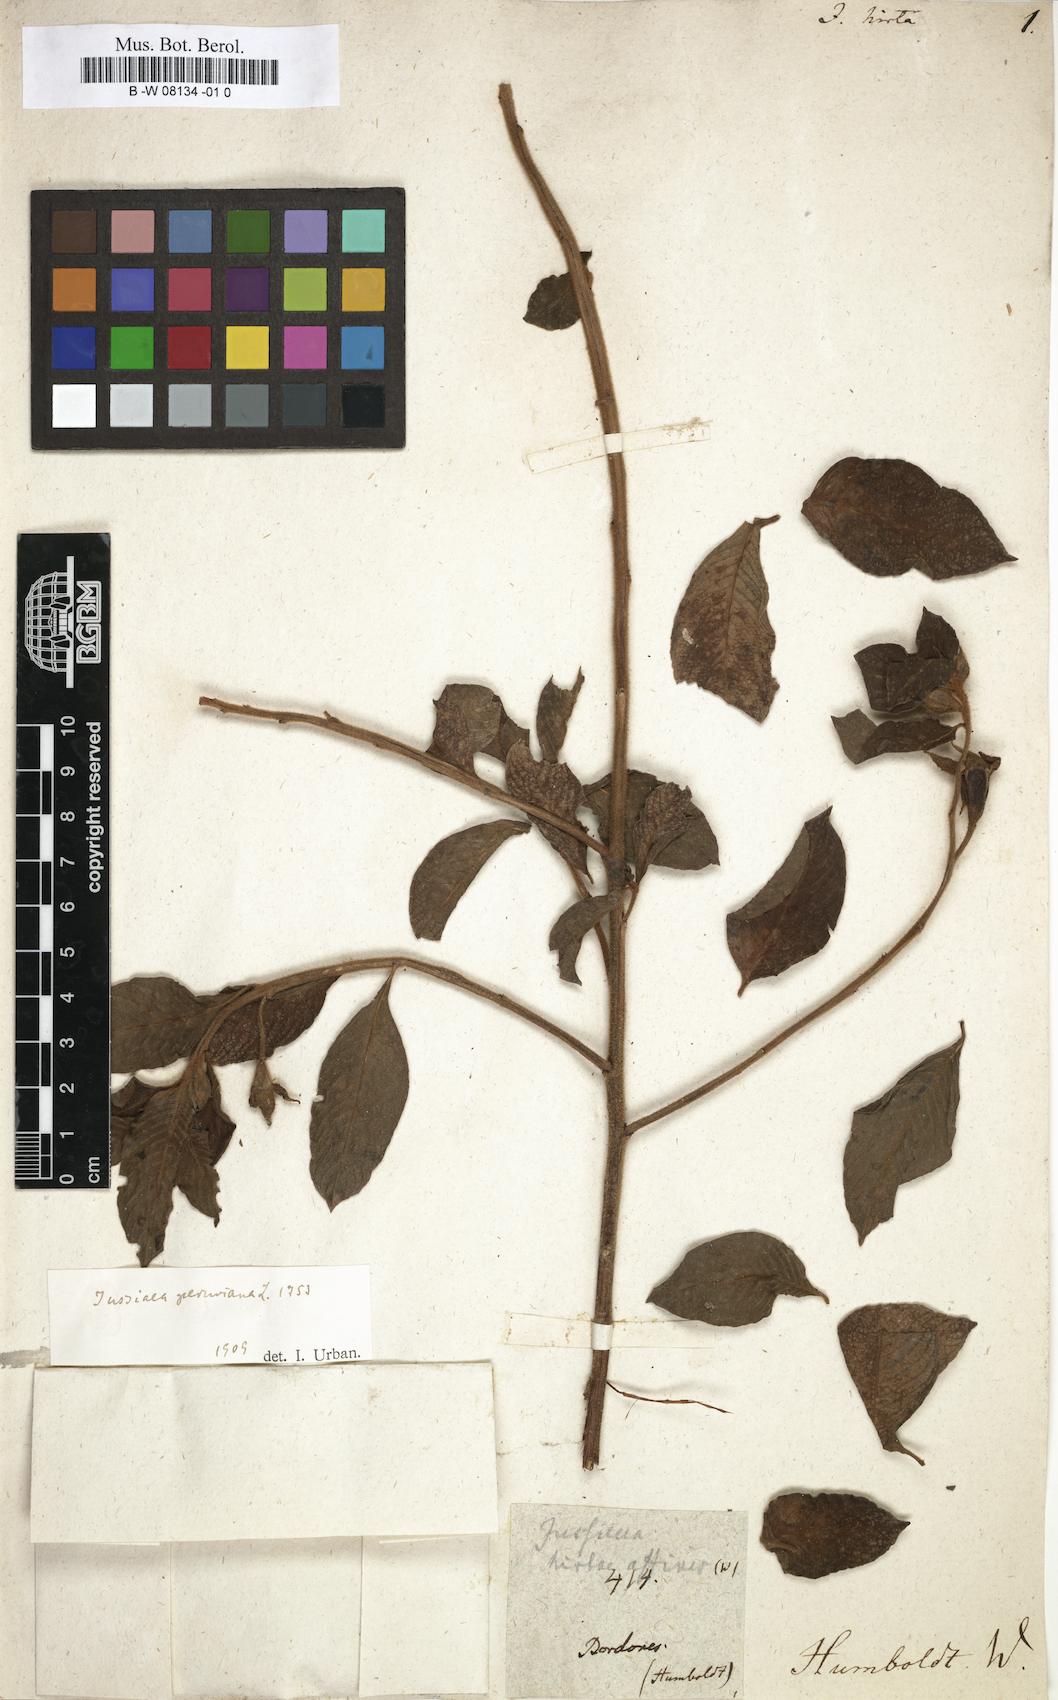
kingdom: Plantae
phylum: Tracheophyta
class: Magnoliopsida
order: Myrtales
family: Onagraceae
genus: Ludwigia
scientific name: Ludwigia peruviana
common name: Peruvian primrose-willow
